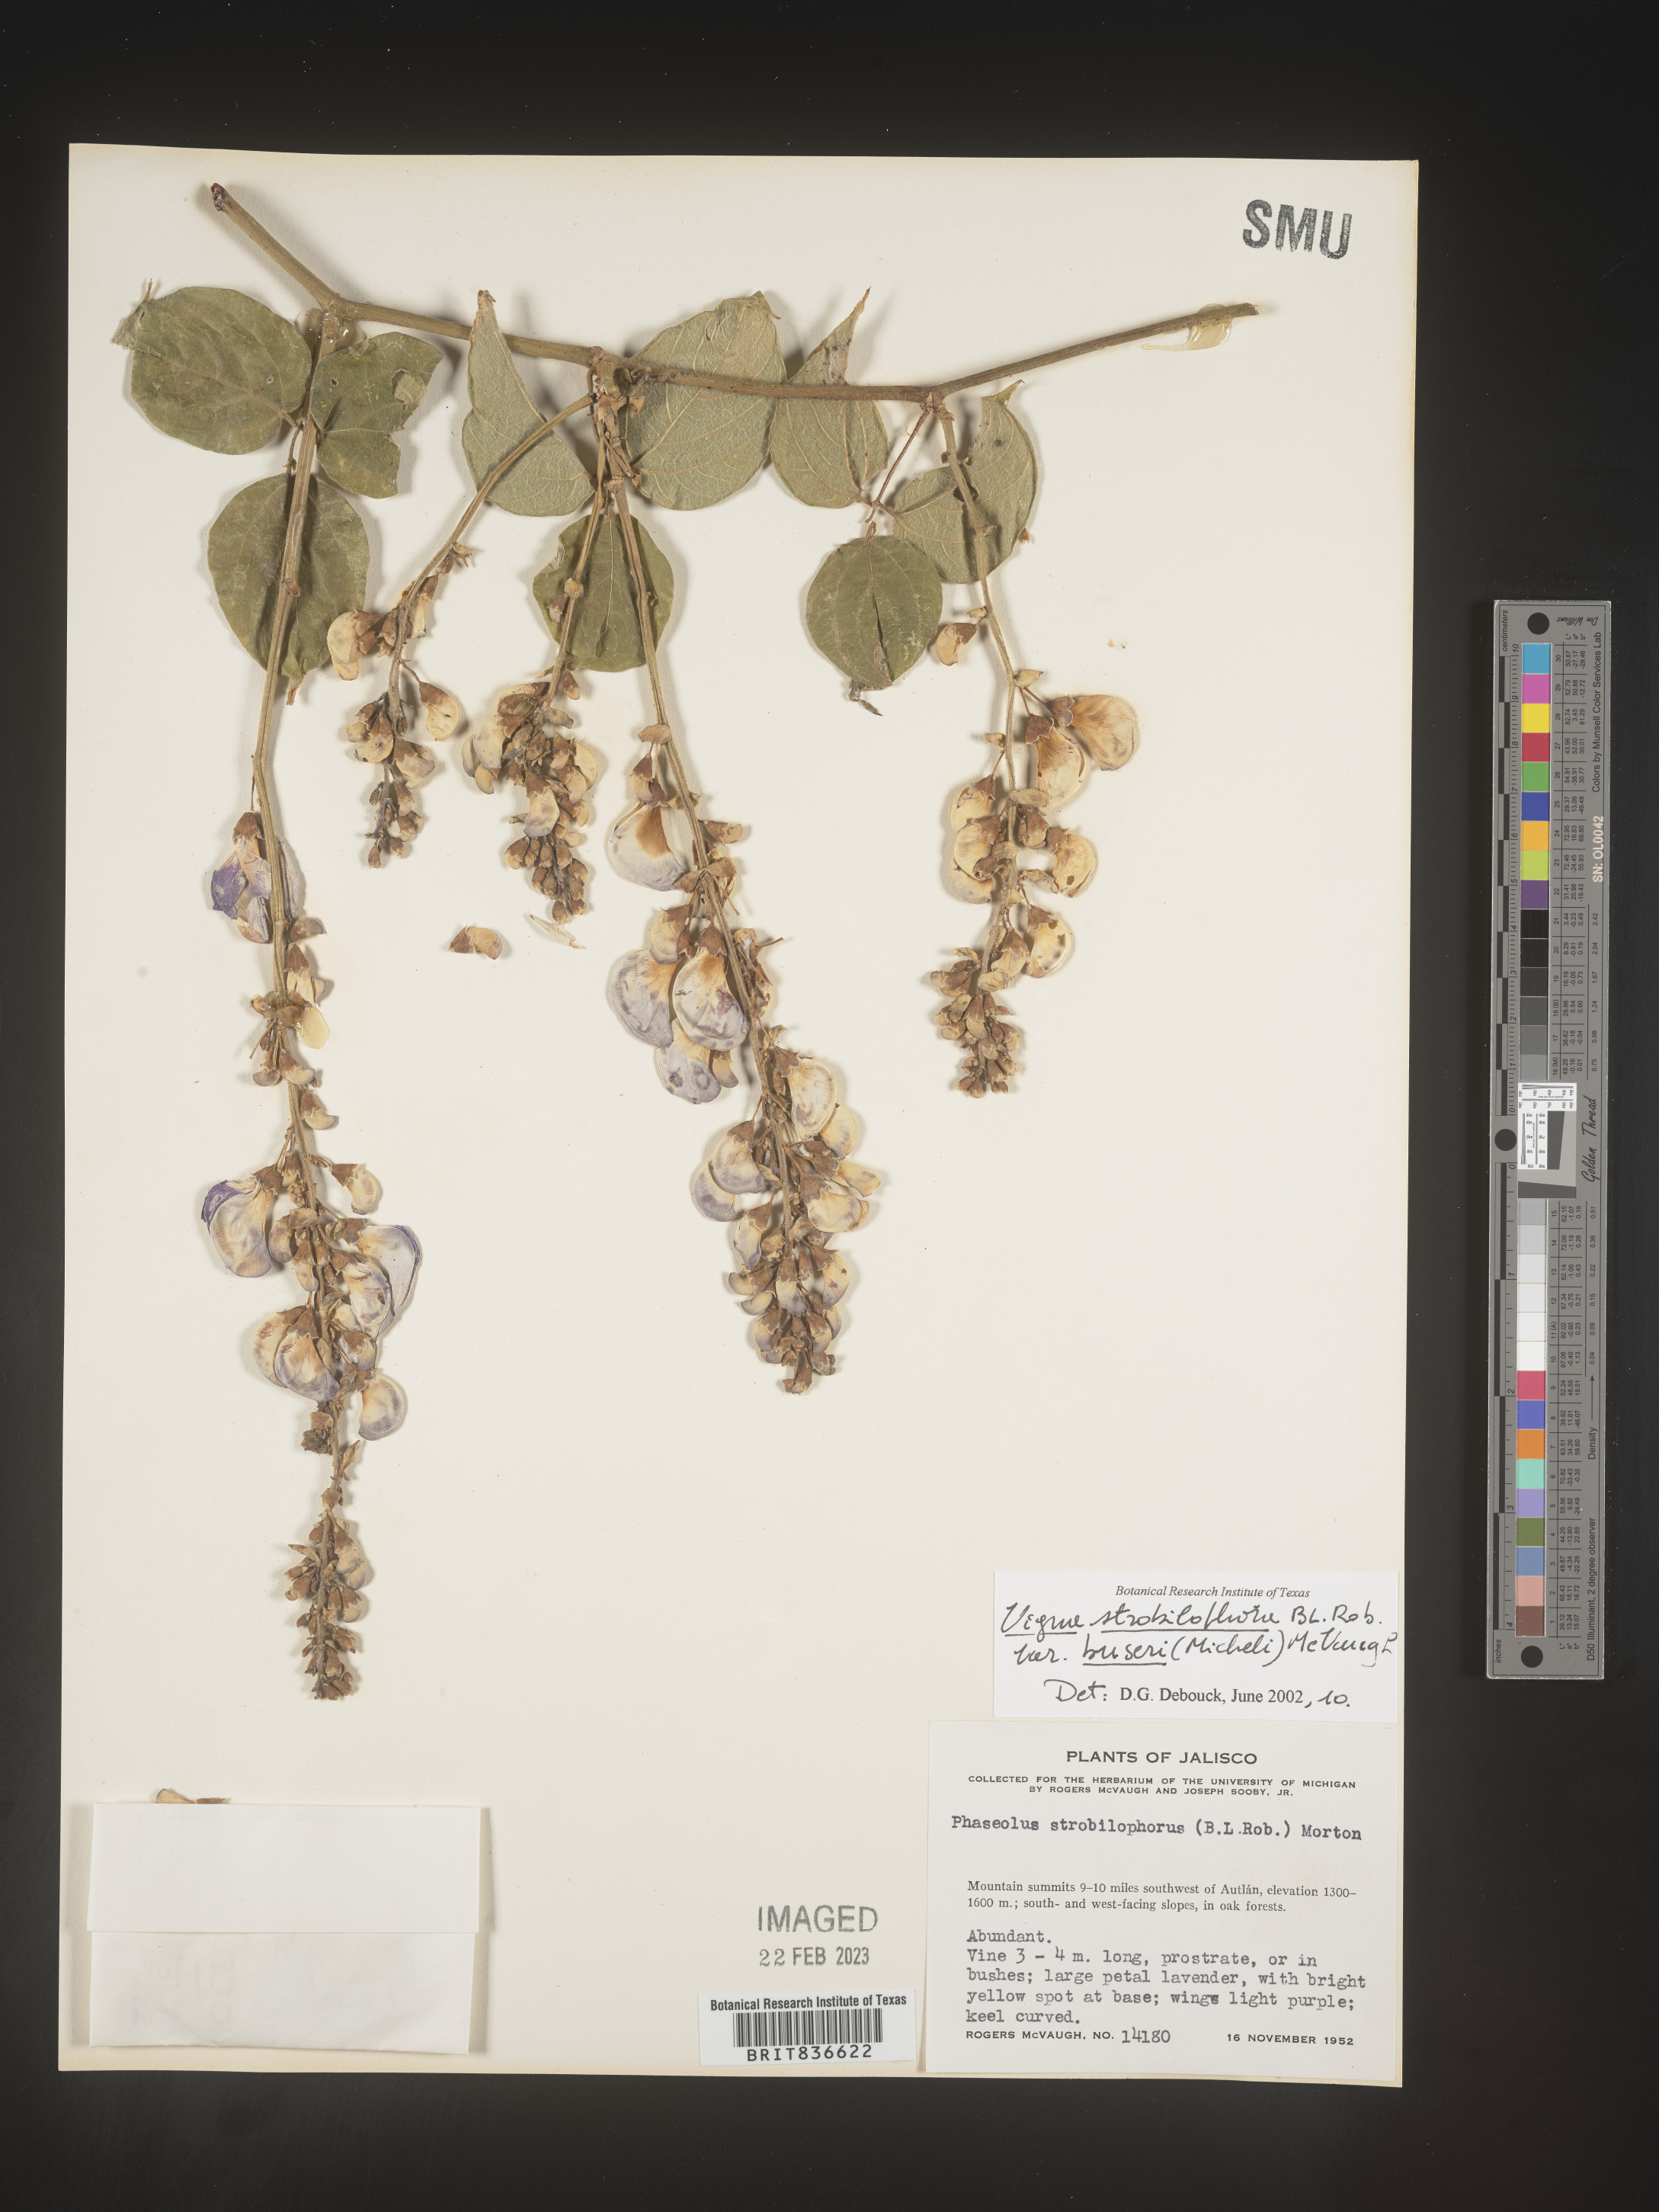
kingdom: Plantae
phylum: Tracheophyta
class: Magnoliopsida
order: Fabales
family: Fabaceae
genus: Vigna
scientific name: Vigna
